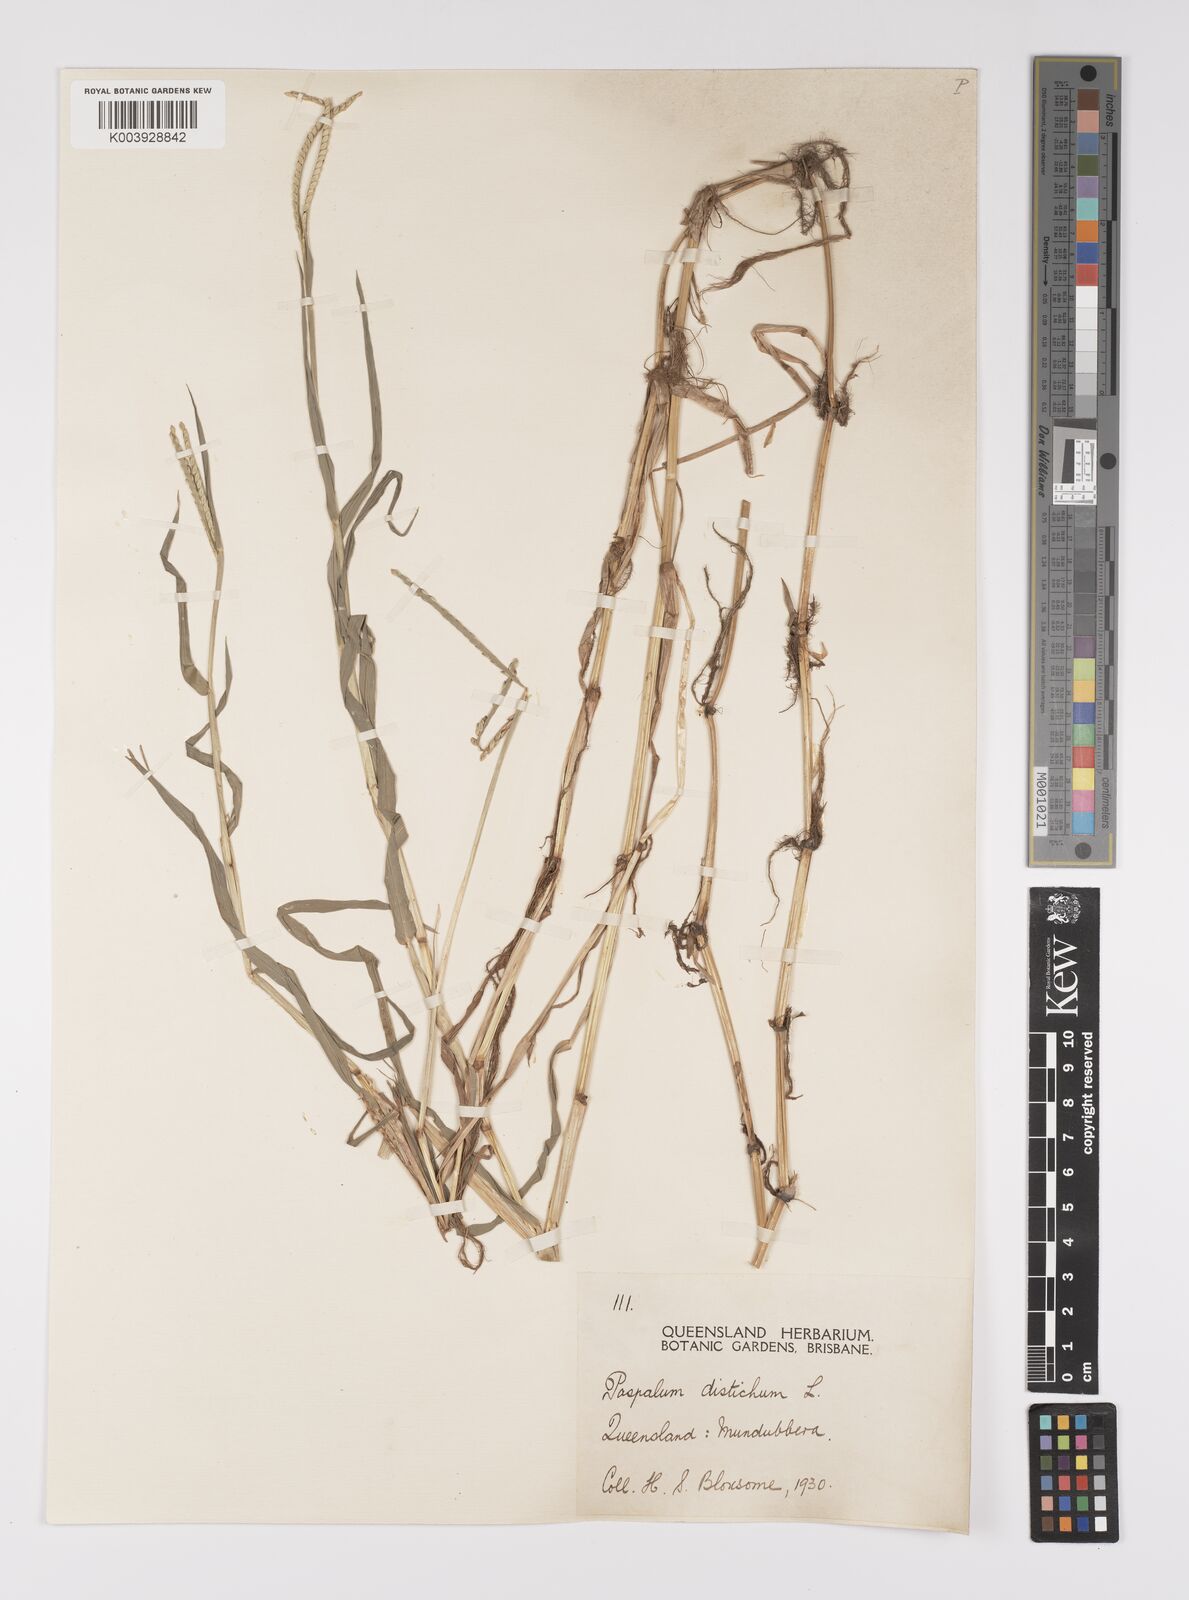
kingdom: Plantae
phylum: Tracheophyta
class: Liliopsida
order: Poales
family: Poaceae
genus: Paspalum
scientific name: Paspalum distichum
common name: Knotgrass
